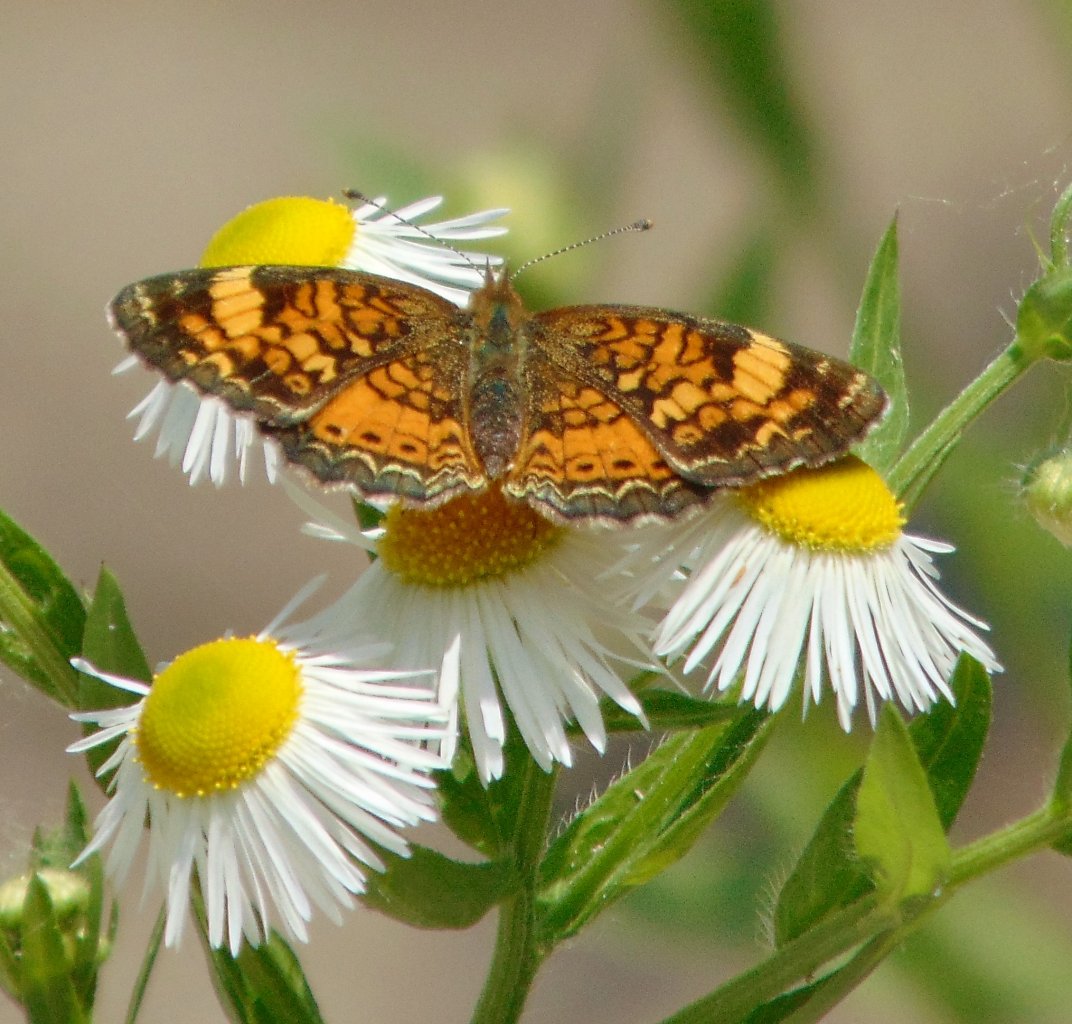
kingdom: Animalia
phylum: Arthropoda
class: Insecta
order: Lepidoptera
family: Nymphalidae
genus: Phyciodes
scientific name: Phyciodes tharos
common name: Pearl Crescent
